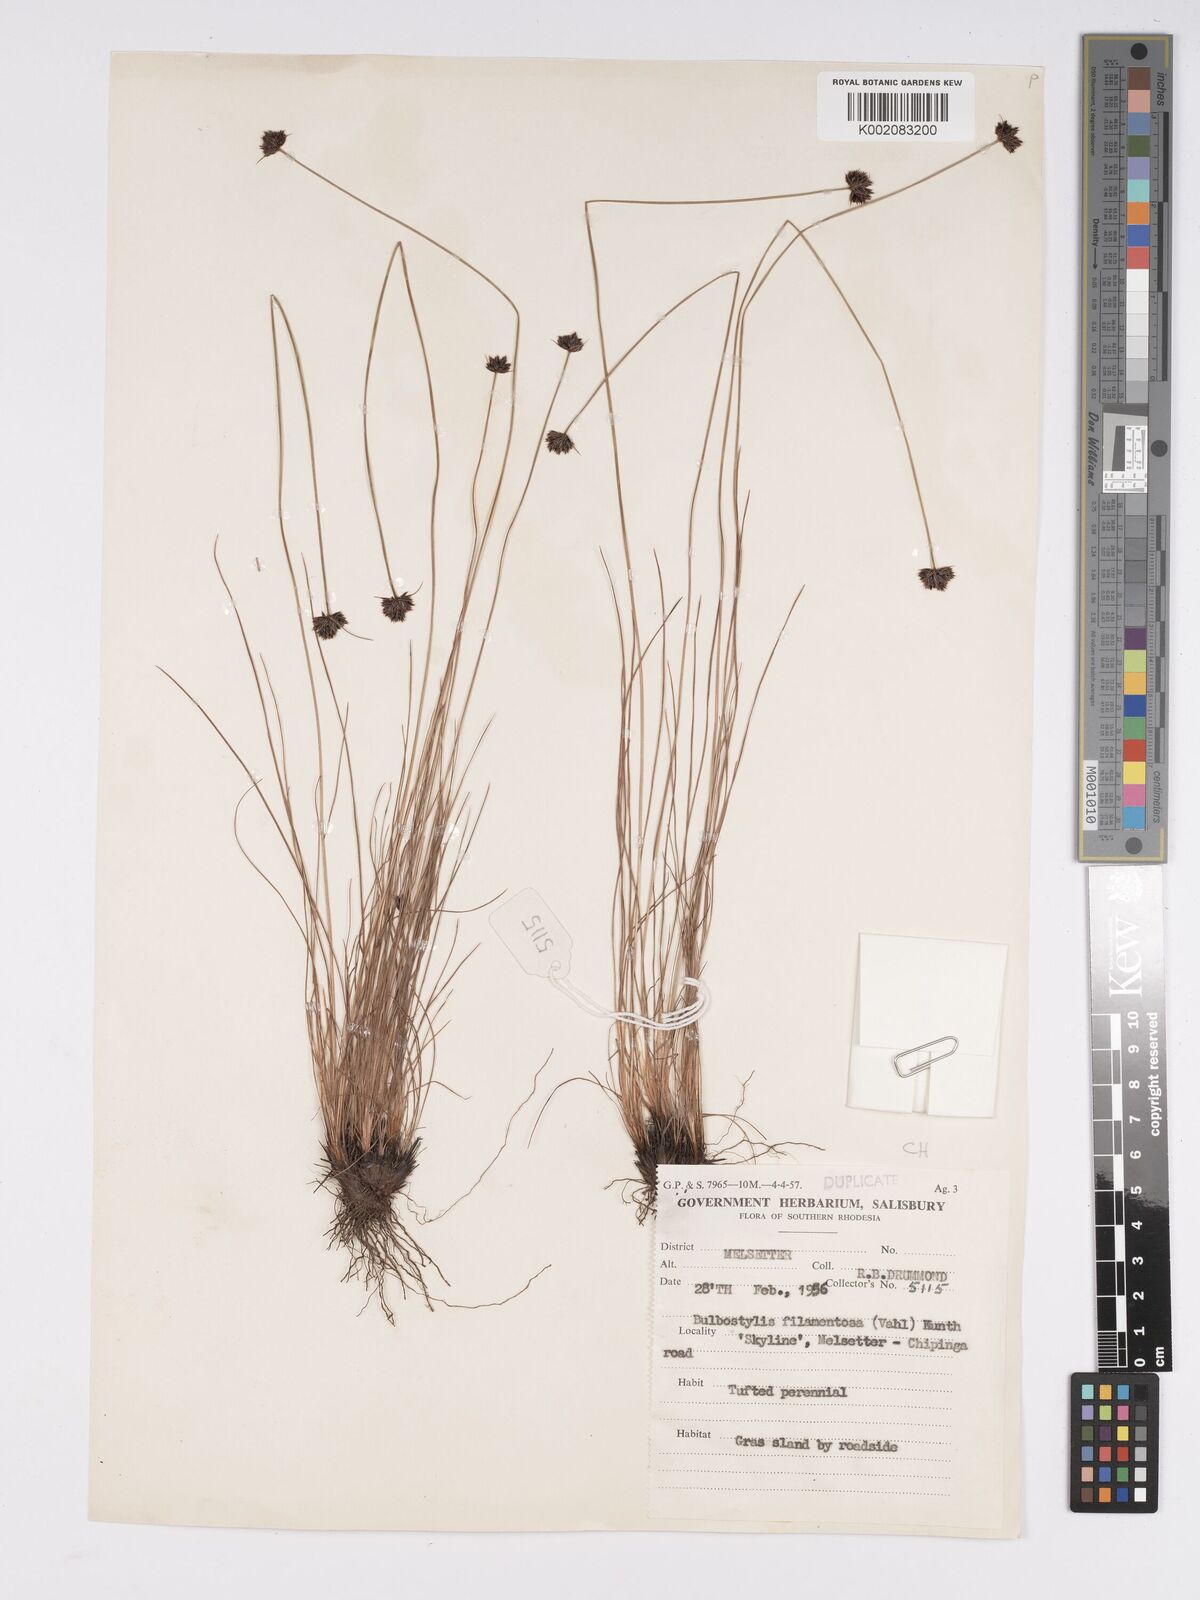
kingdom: Plantae
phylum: Tracheophyta
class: Liliopsida
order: Poales
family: Cyperaceae
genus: Bulbostylis
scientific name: Bulbostylis filamentosa
